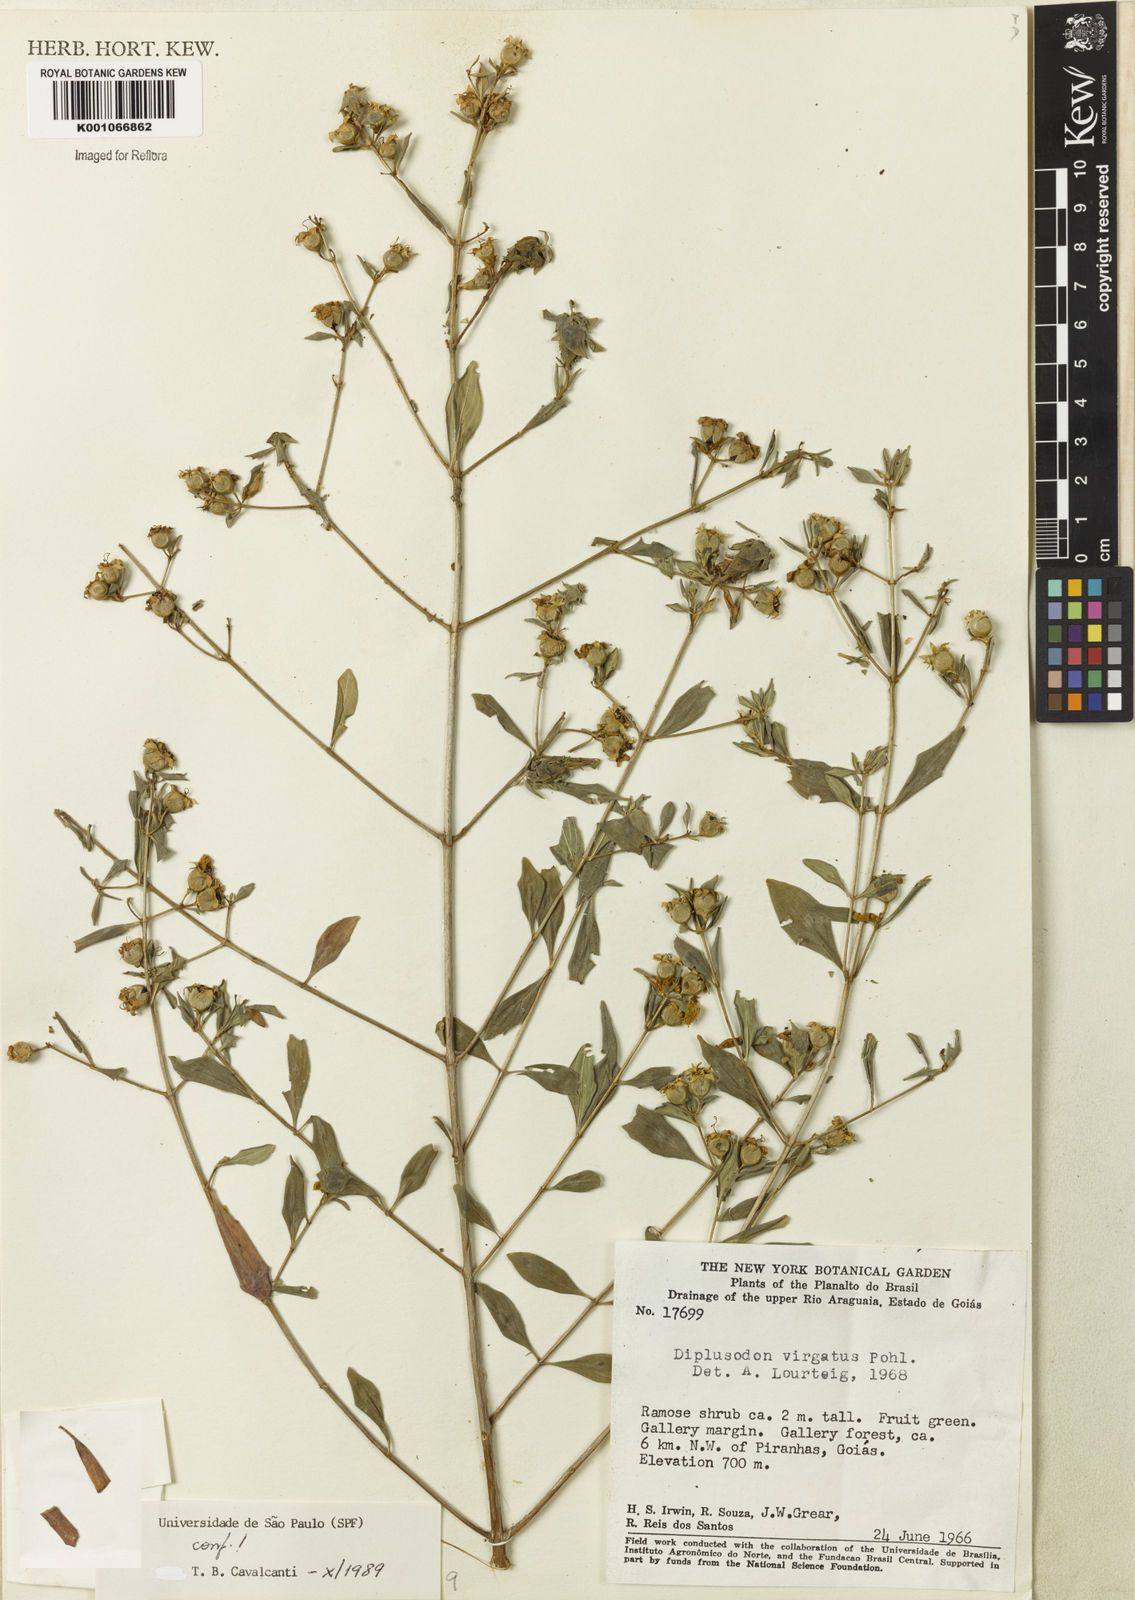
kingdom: Plantae
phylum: Tracheophyta
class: Magnoliopsida
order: Myrtales
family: Lythraceae
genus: Diplusodon
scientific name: Diplusodon virgatus
